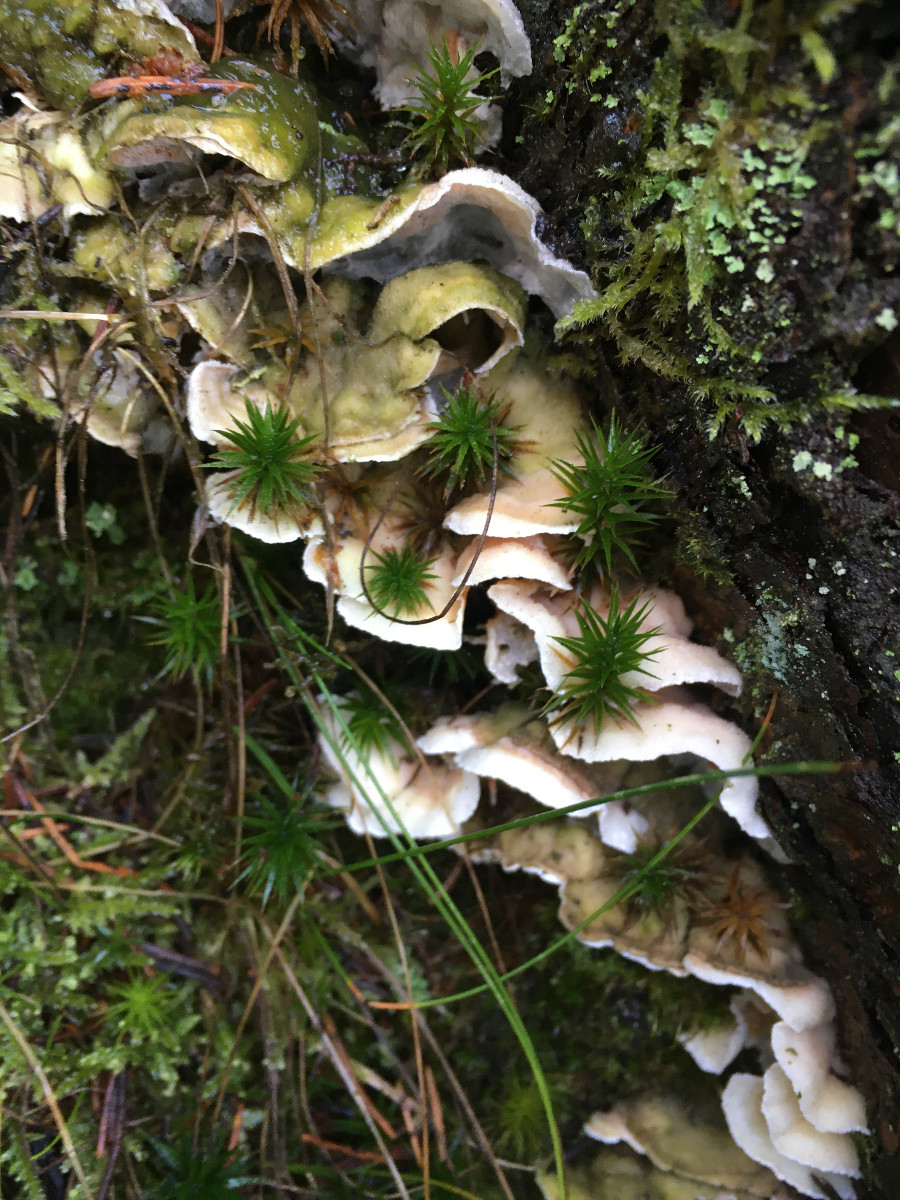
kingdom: Fungi
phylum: Basidiomycota
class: Agaricomycetes
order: Polyporales
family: Incrustoporiaceae
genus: Skeletocutis
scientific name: Skeletocutis amorpha
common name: orange krystalporesvamp
